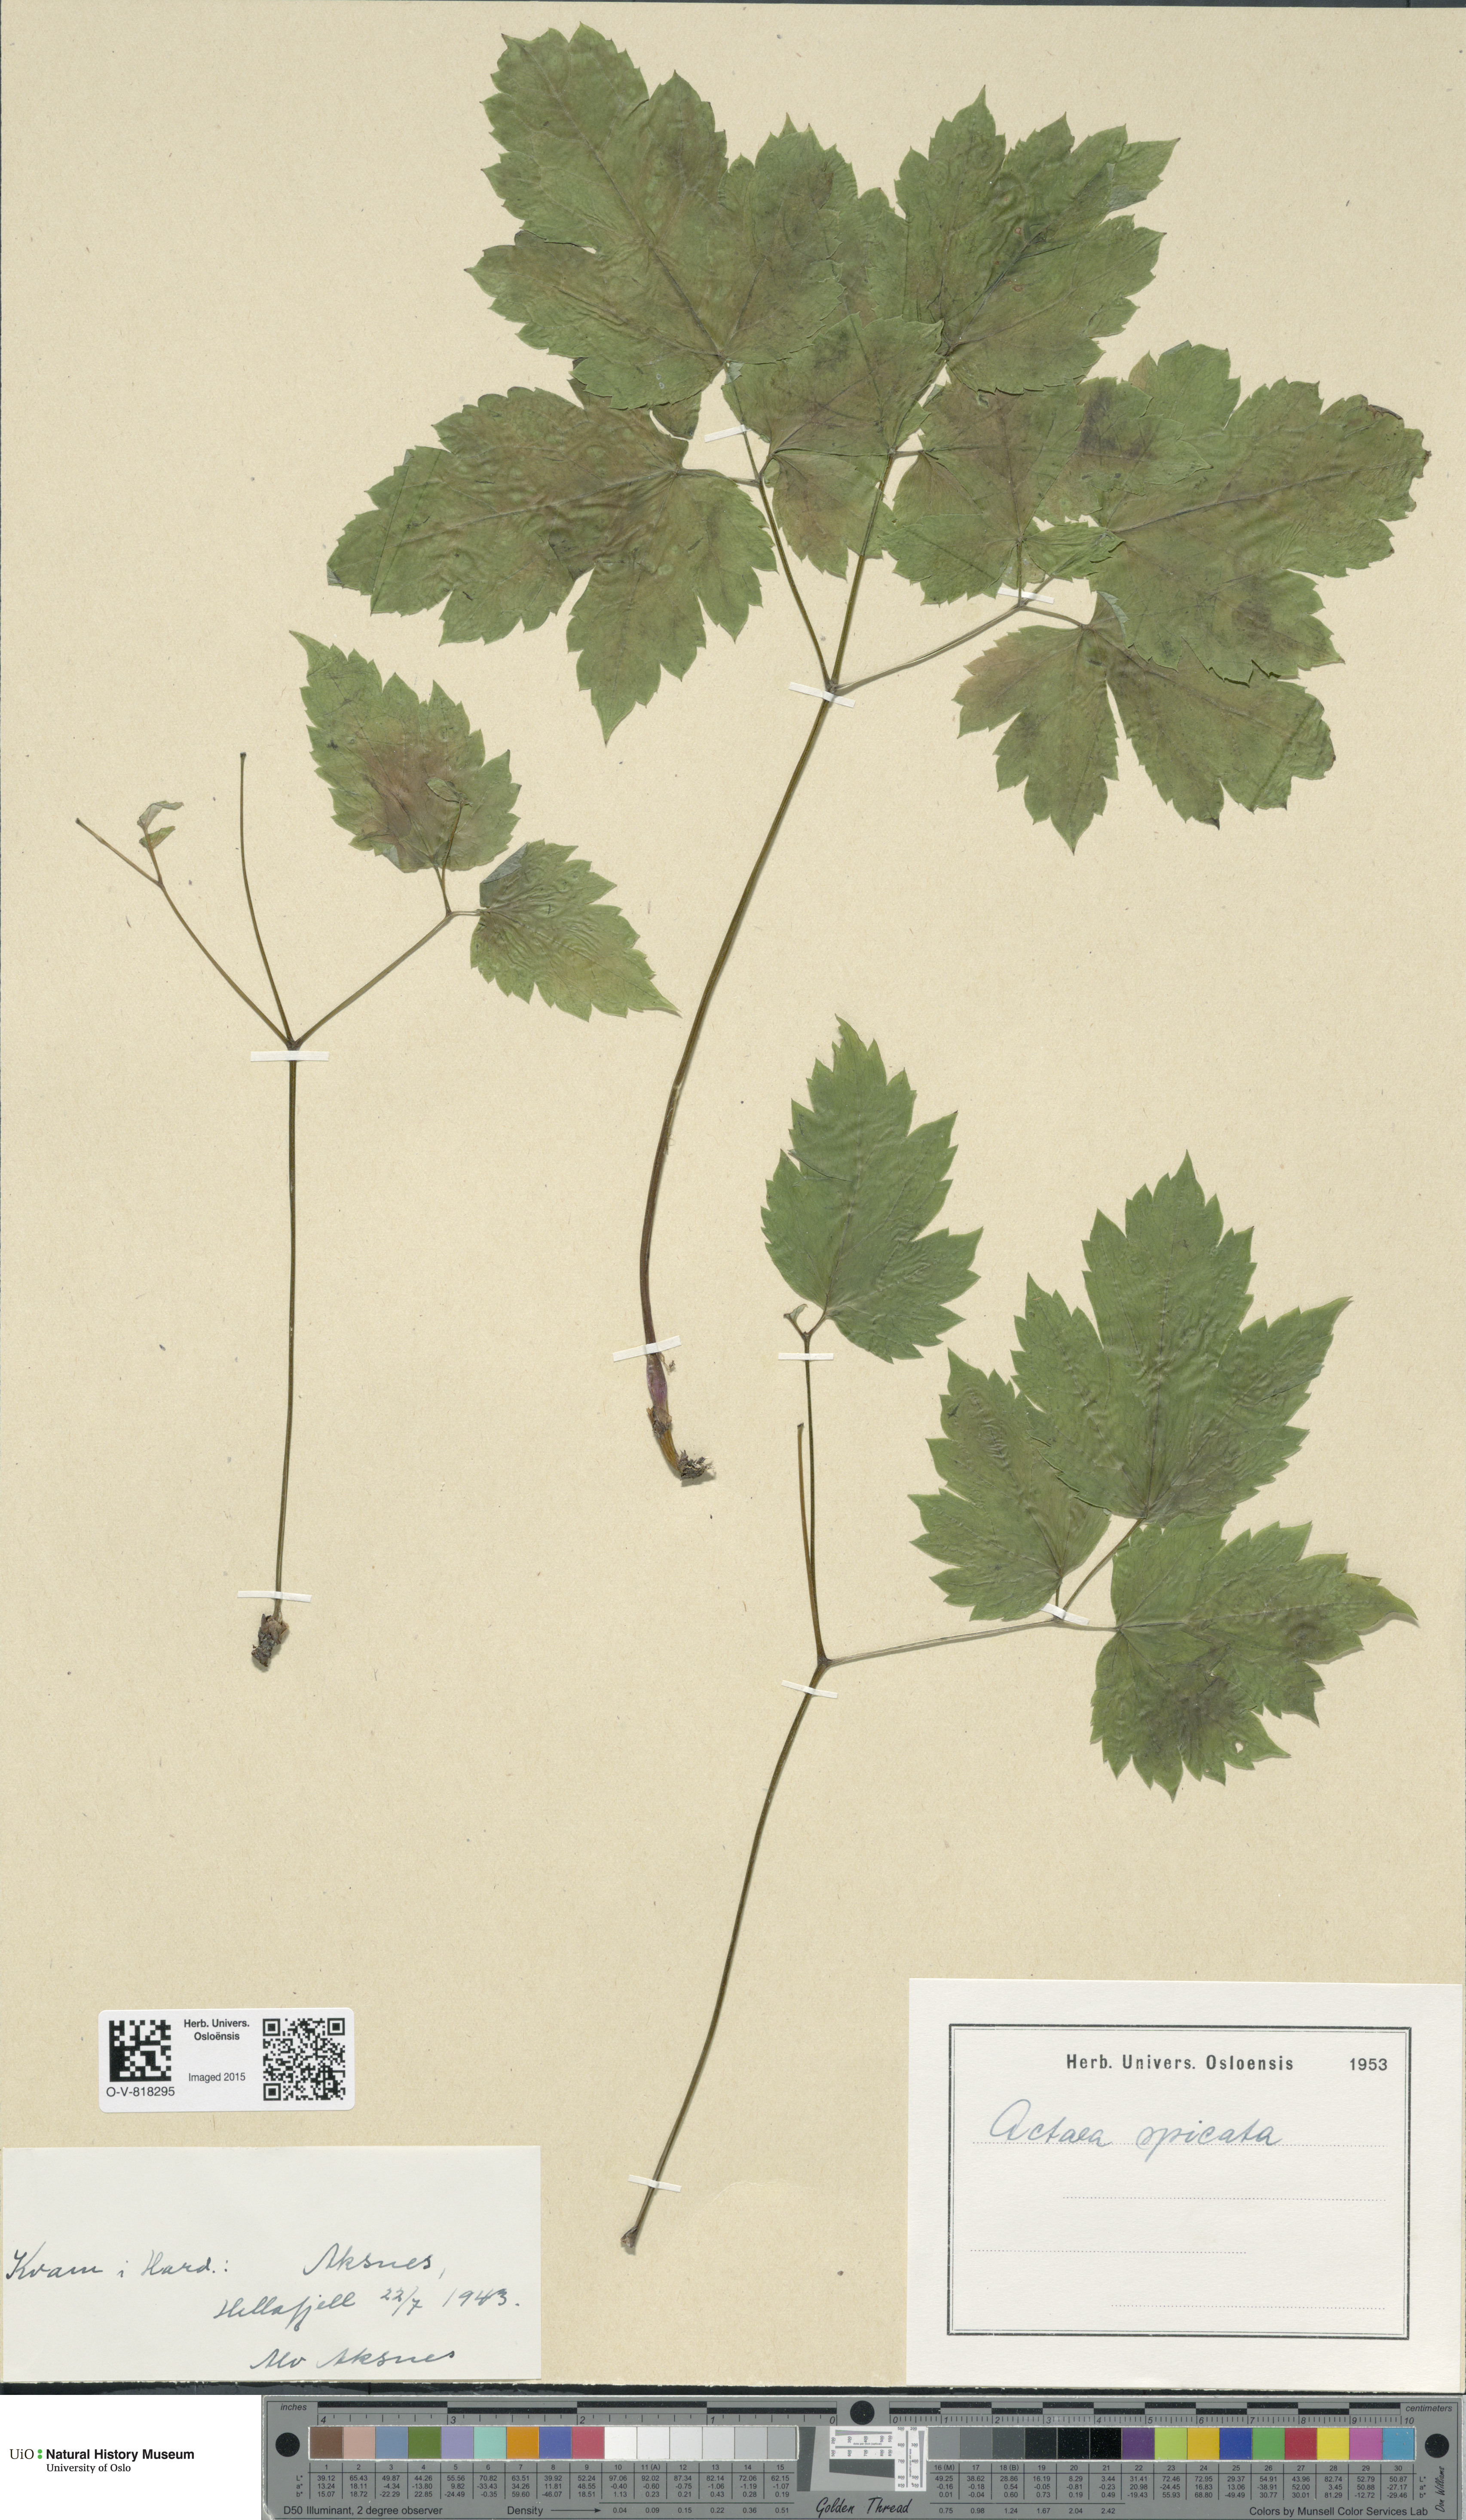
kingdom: Plantae
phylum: Tracheophyta
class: Magnoliopsida
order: Ranunculales
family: Ranunculaceae
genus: Actaea
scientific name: Actaea spicata
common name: Baneberry
